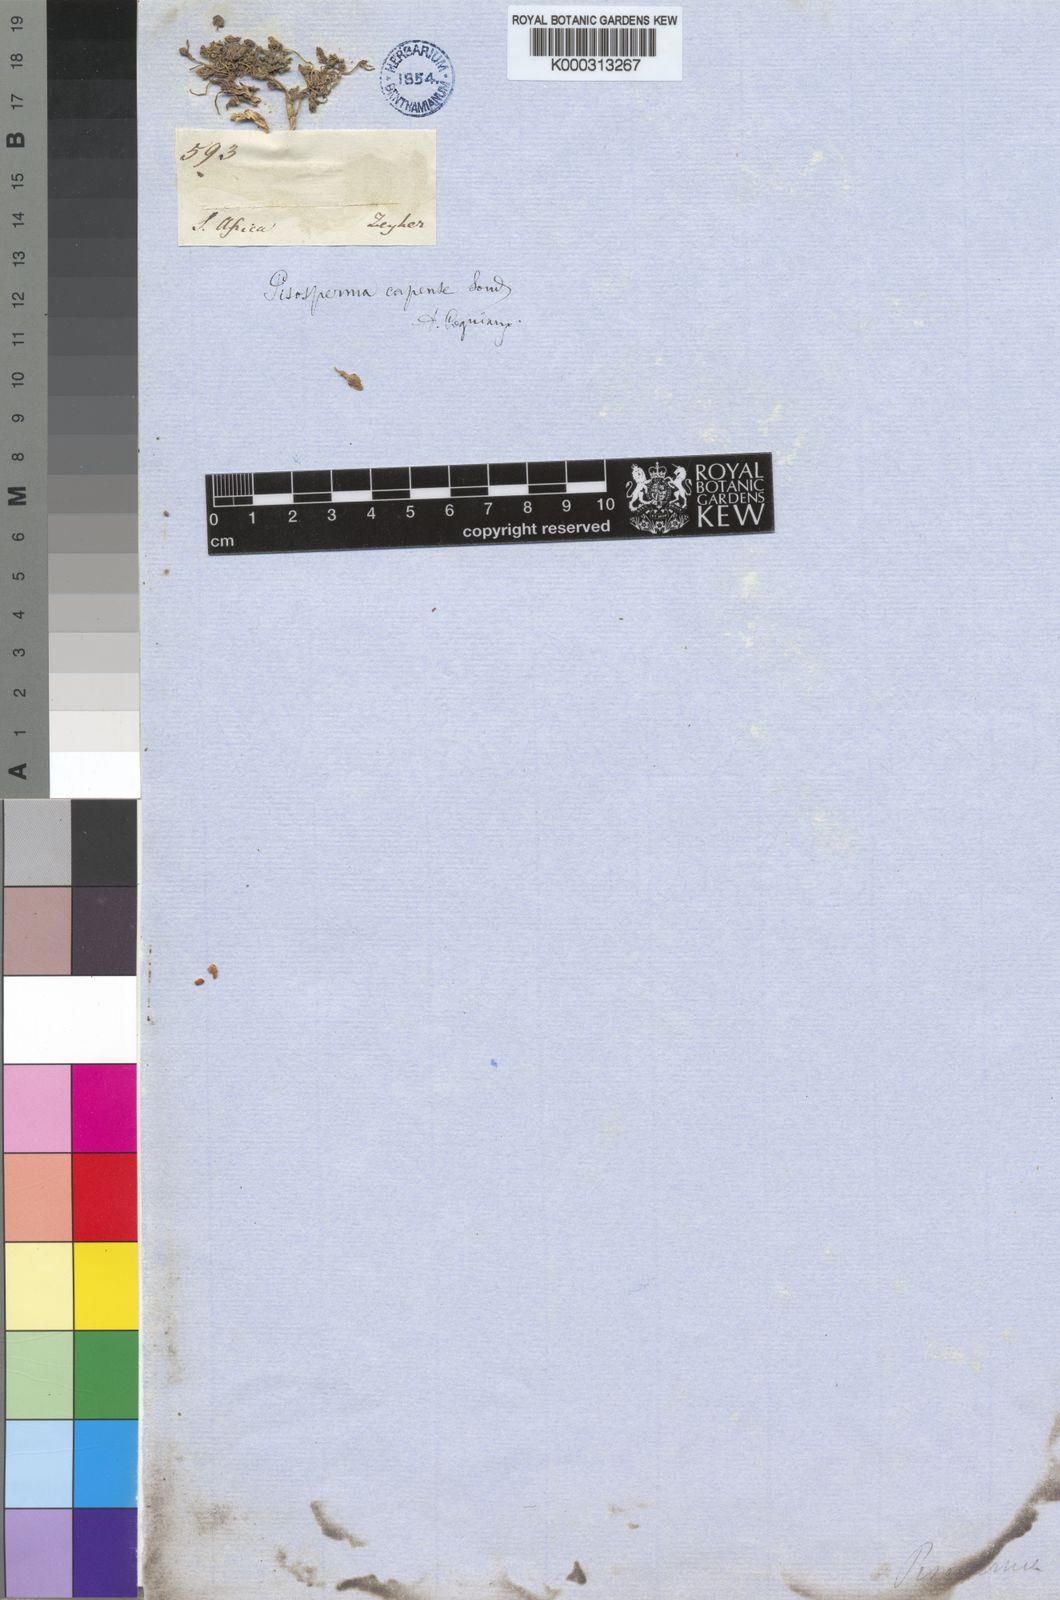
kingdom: Plantae
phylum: Tracheophyta
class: Magnoliopsida
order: Cucurbitales
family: Cucurbitaceae
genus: Kedrostis
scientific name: Kedrostis capensis
